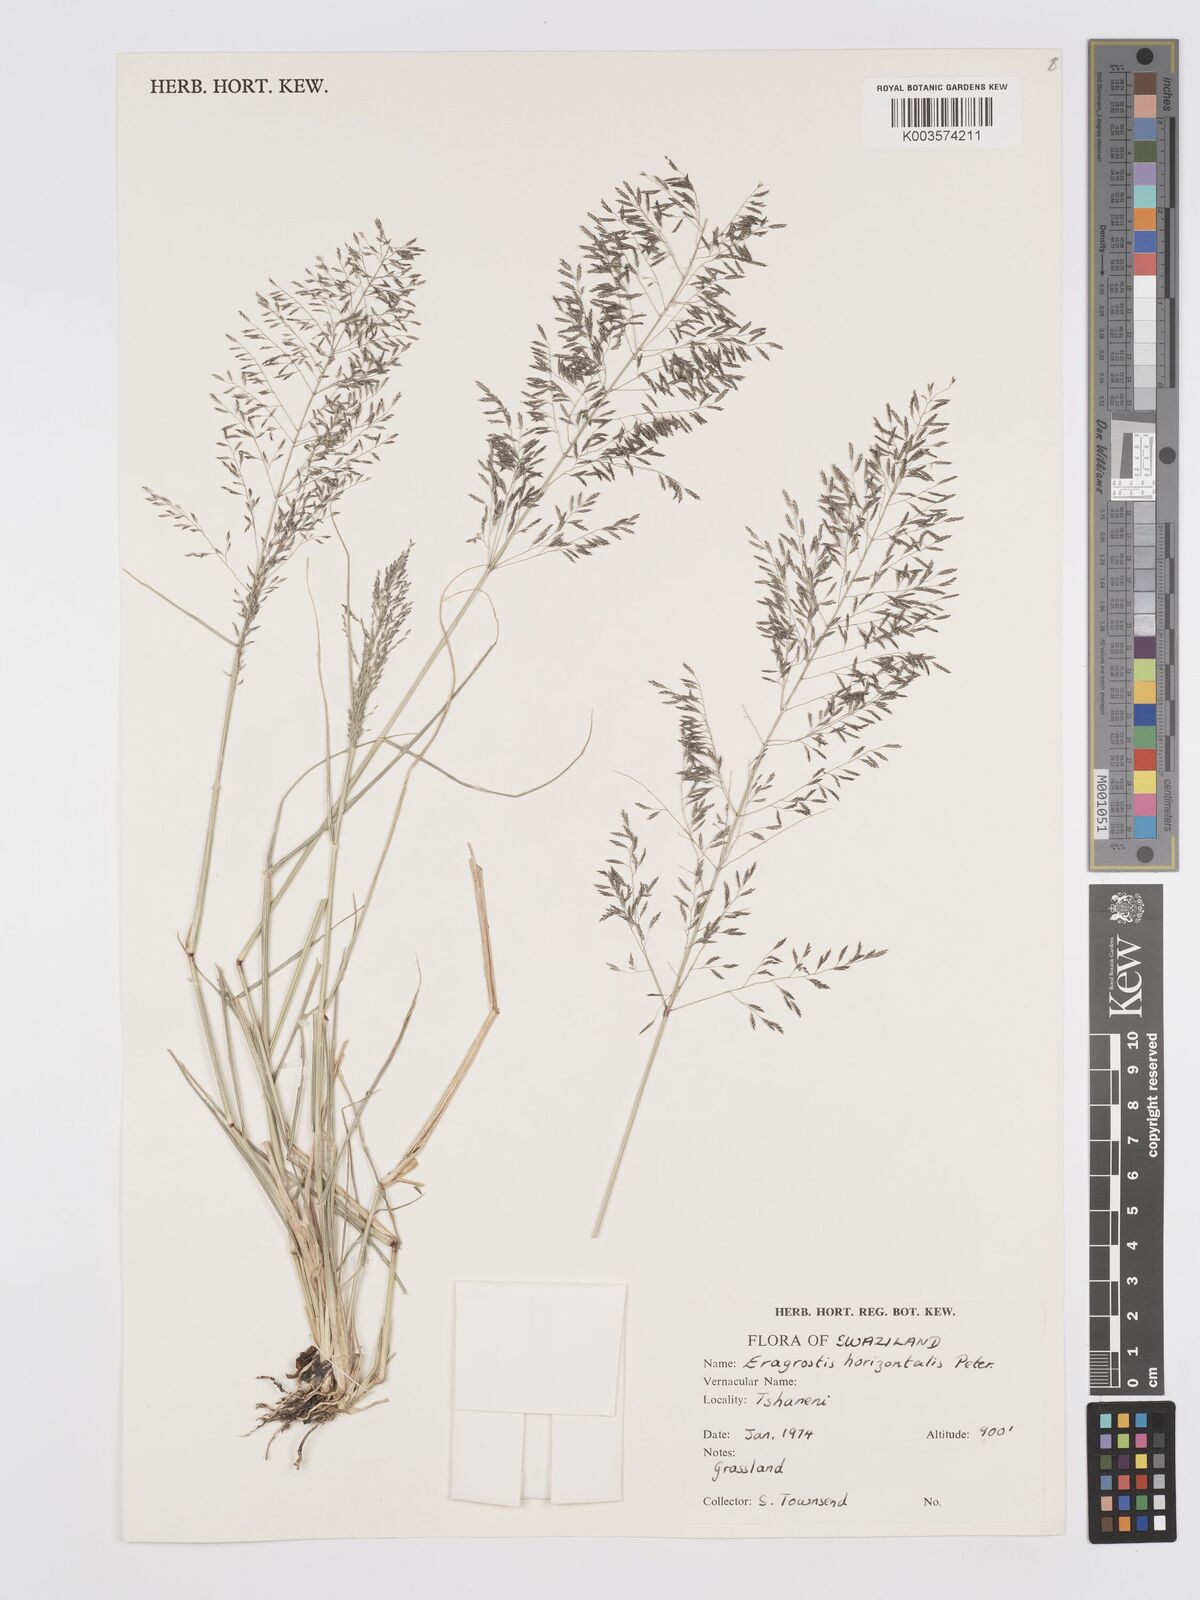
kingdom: Plantae
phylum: Tracheophyta
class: Liliopsida
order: Poales
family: Poaceae
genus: Eragrostis
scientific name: Eragrostis cylindriflora
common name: Cylinderflower lovegrass
